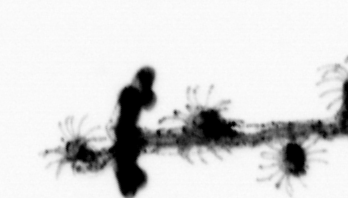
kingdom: Animalia
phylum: Cnidaria
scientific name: Cnidaria
